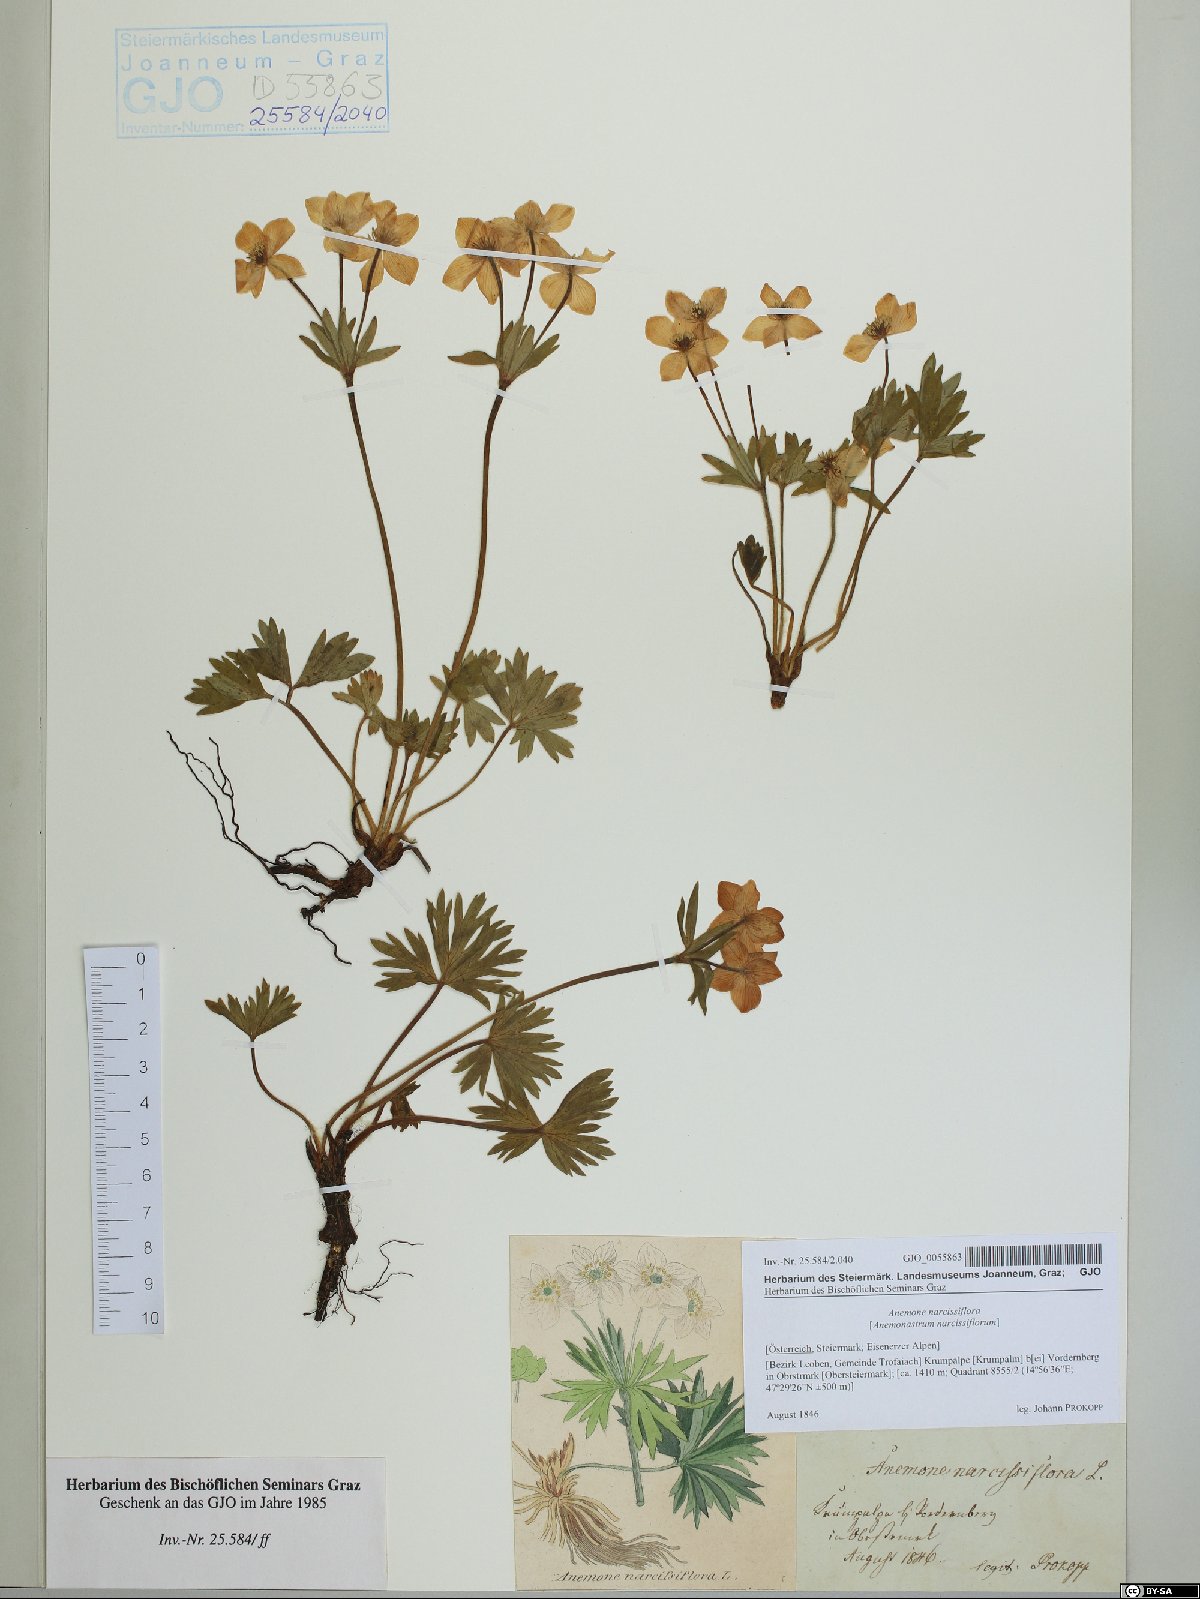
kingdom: Plantae
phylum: Tracheophyta
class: Magnoliopsida
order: Ranunculales
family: Ranunculaceae
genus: Anemonastrum
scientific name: Anemonastrum narcissiflorum
